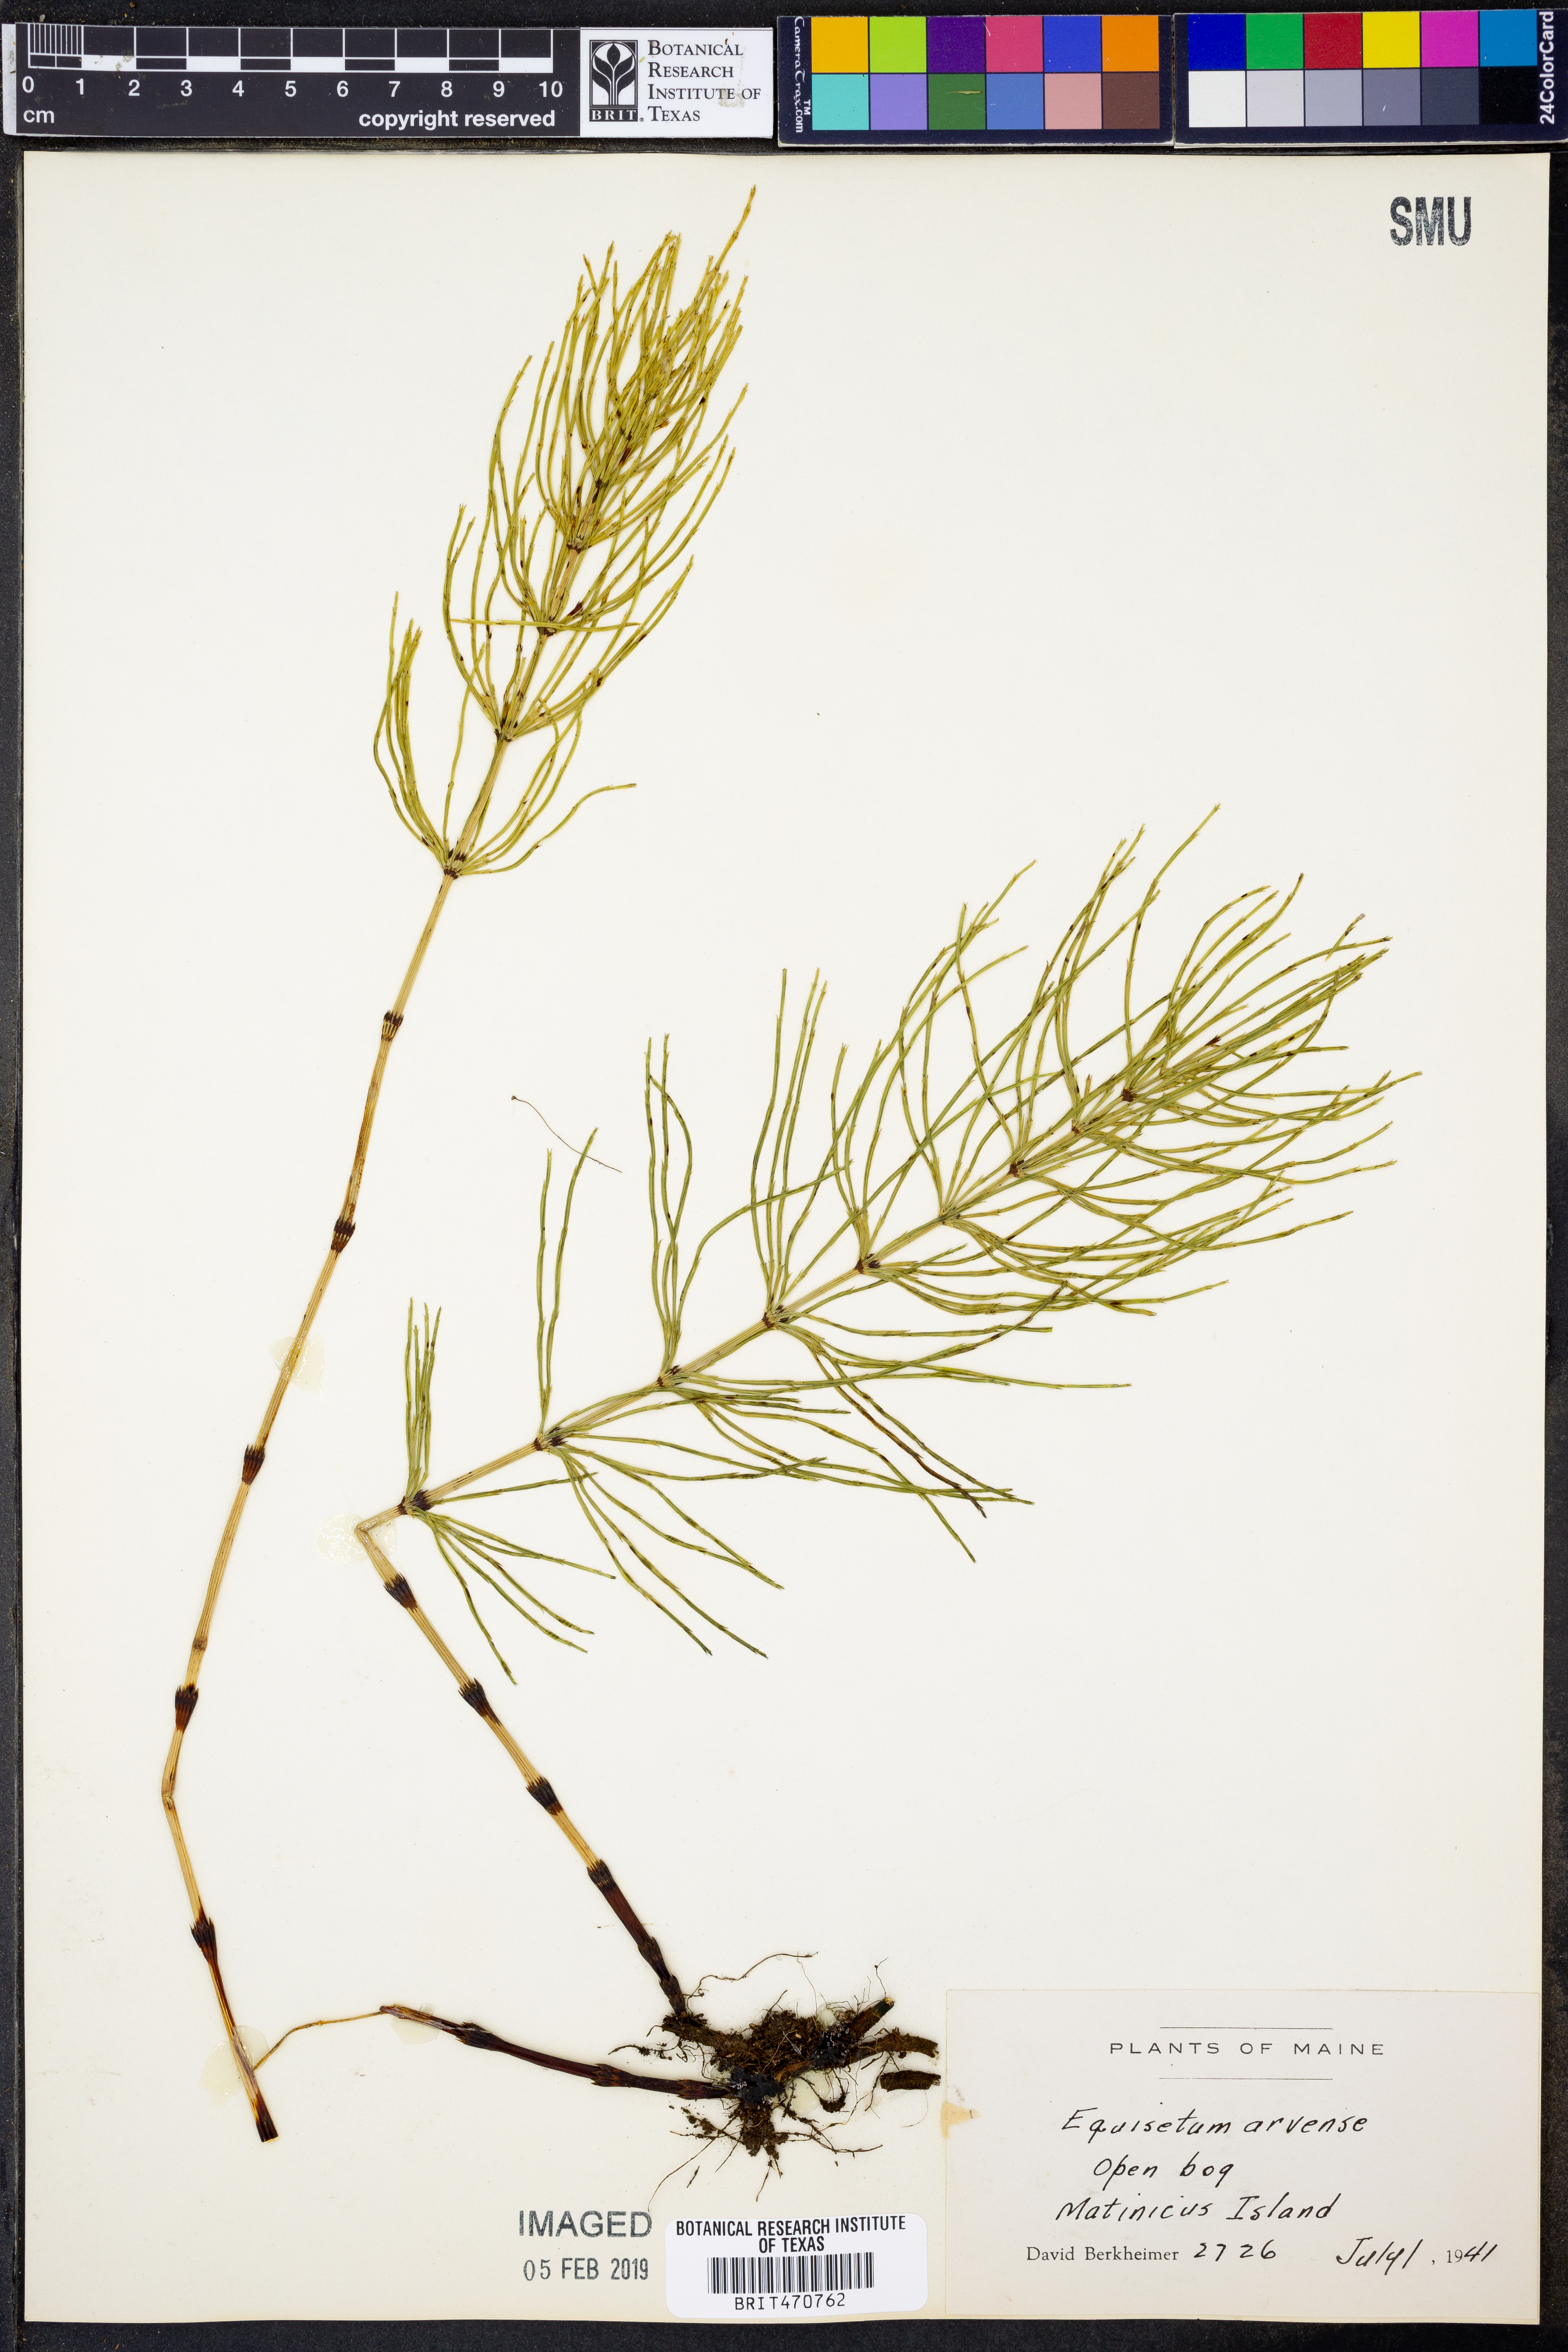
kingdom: Plantae
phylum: Tracheophyta
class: Polypodiopsida
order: Equisetales
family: Equisetaceae
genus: Equisetum
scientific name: Equisetum arvense
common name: Field horsetail
